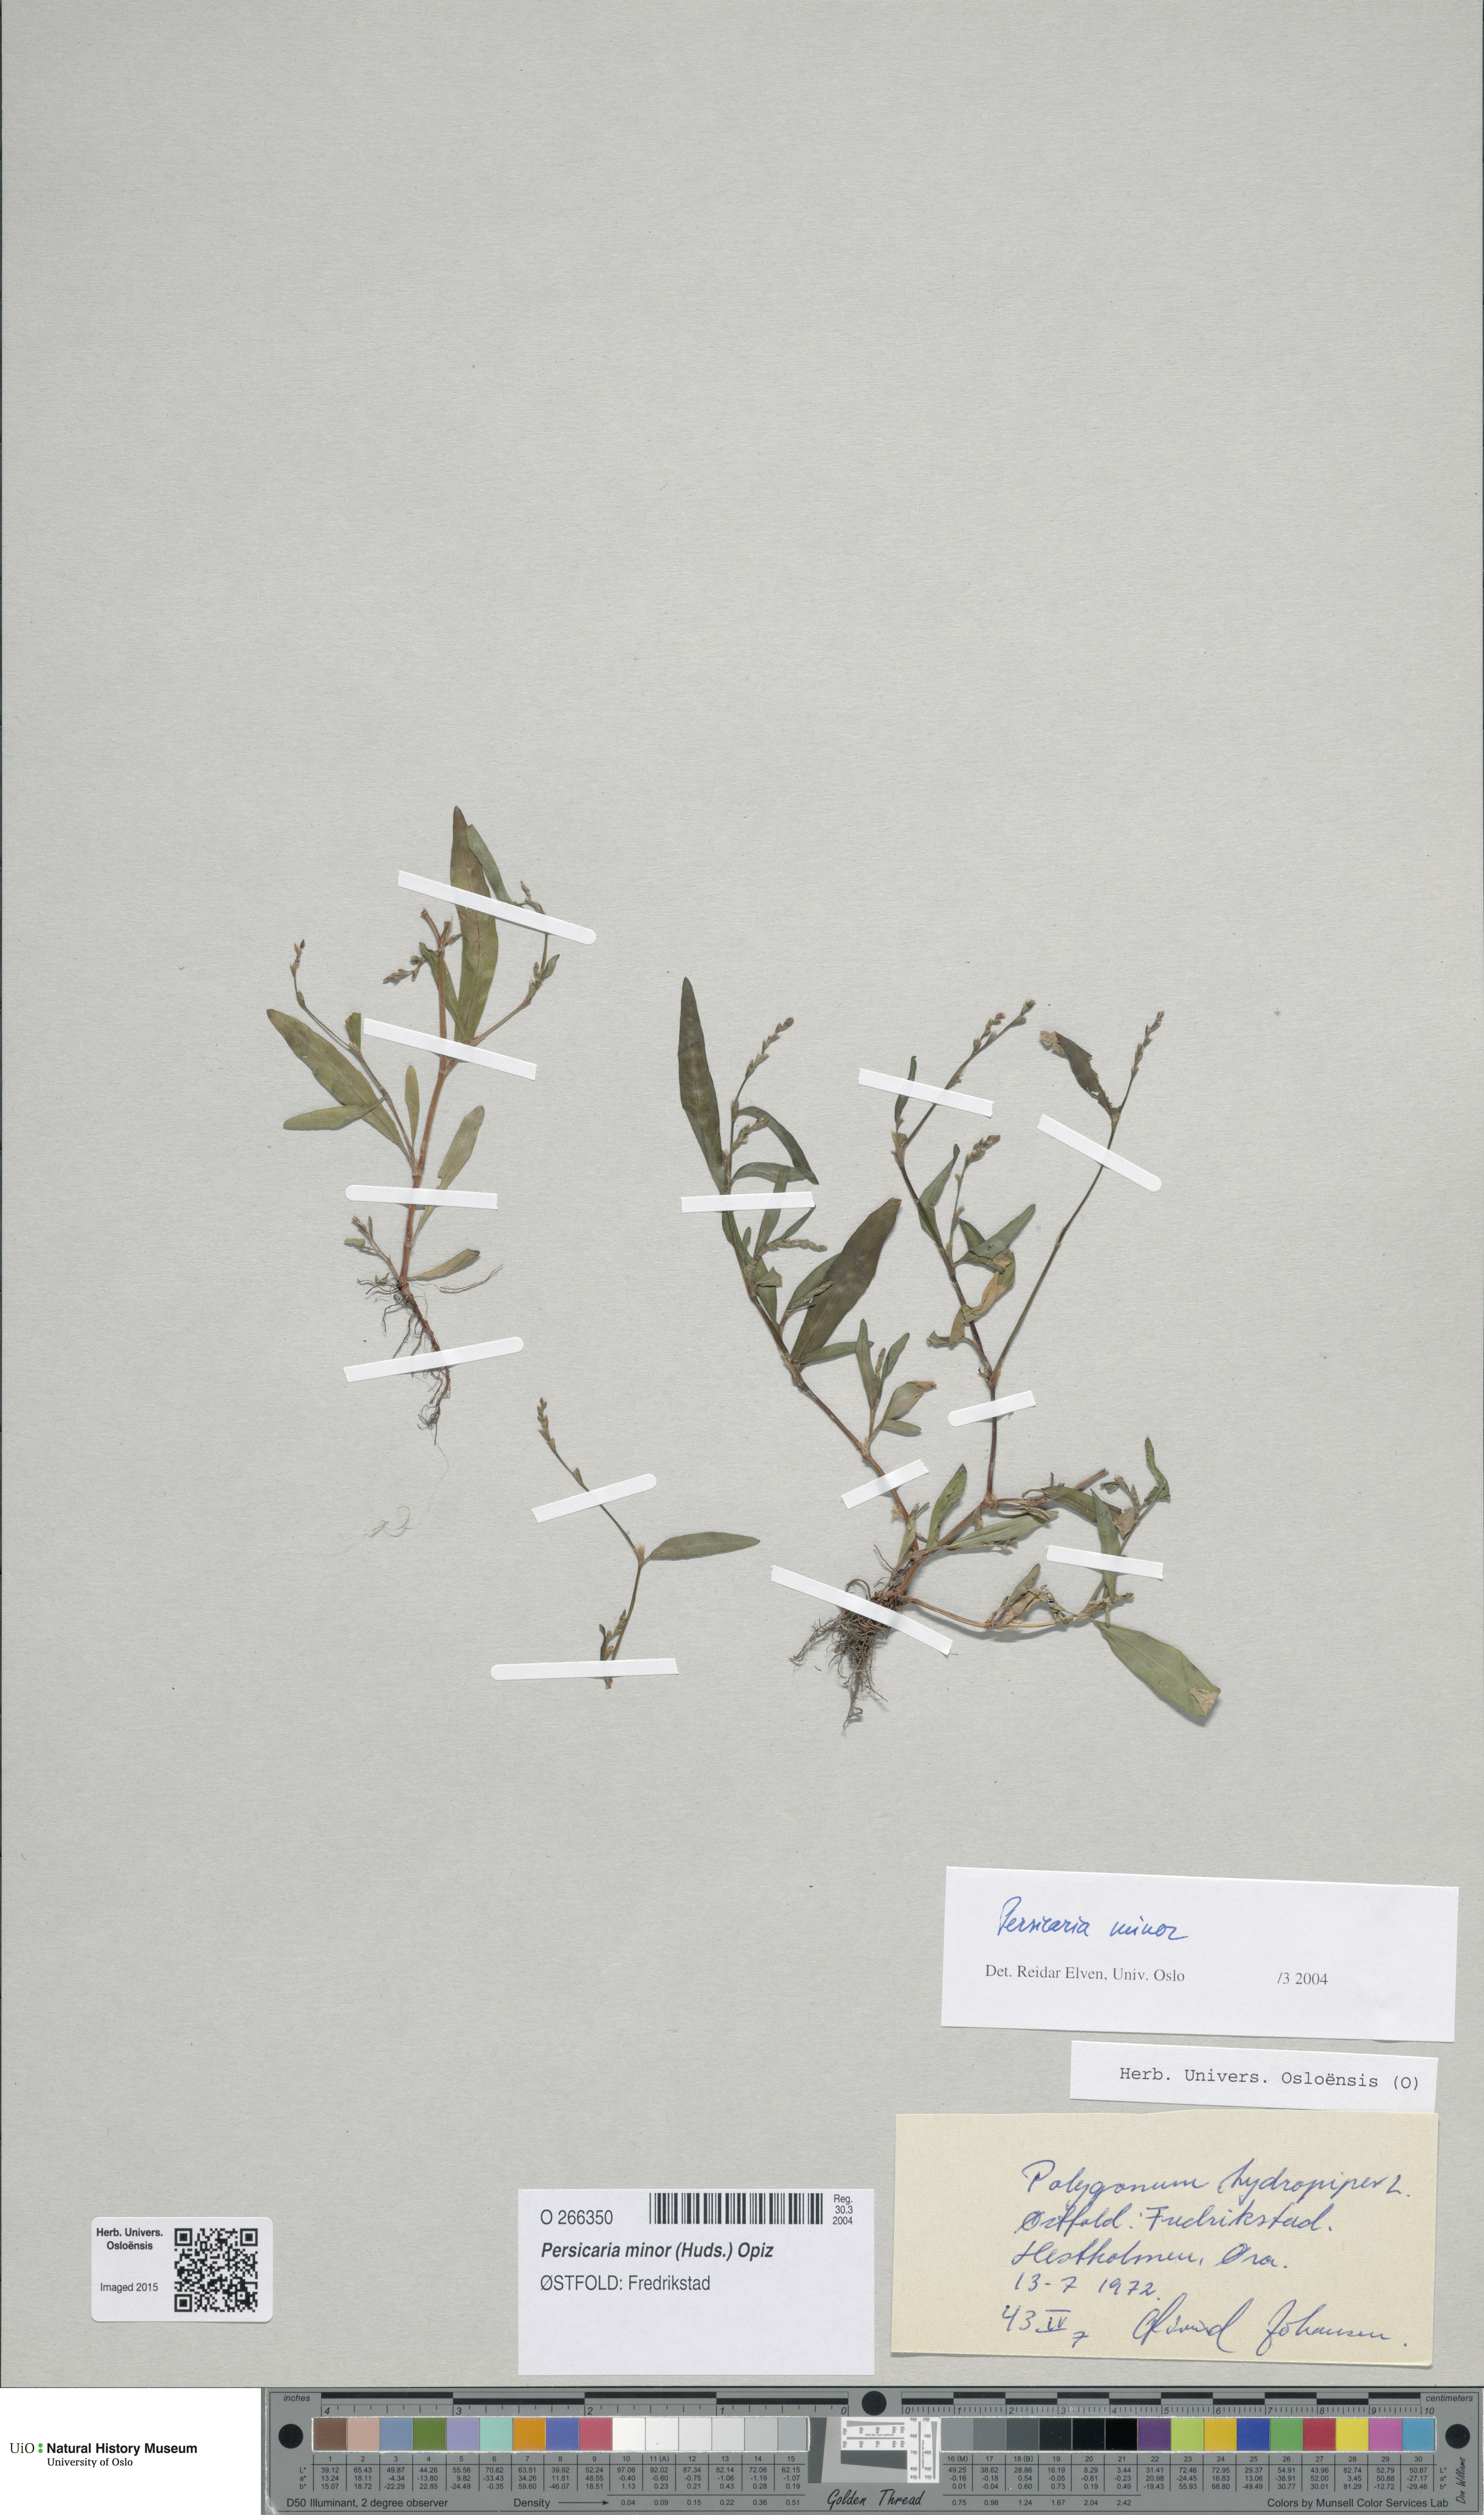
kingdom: Plantae
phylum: Tracheophyta
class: Magnoliopsida
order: Caryophyllales
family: Polygonaceae
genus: Persicaria
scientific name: Persicaria minor
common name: Small water-pepper
